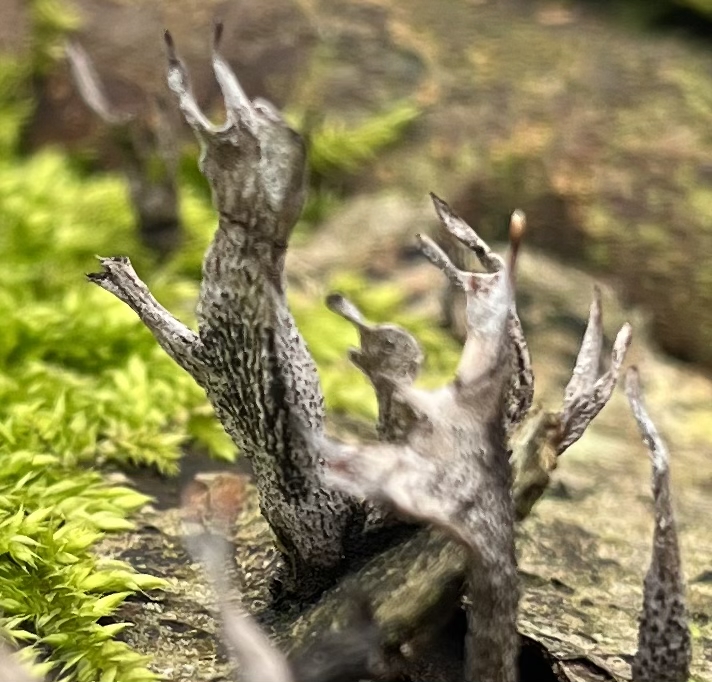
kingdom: Fungi
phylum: Ascomycota
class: Sordariomycetes
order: Xylariales
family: Xylariaceae
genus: Xylaria
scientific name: Xylaria hypoxylon
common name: grenet stødsvamp
